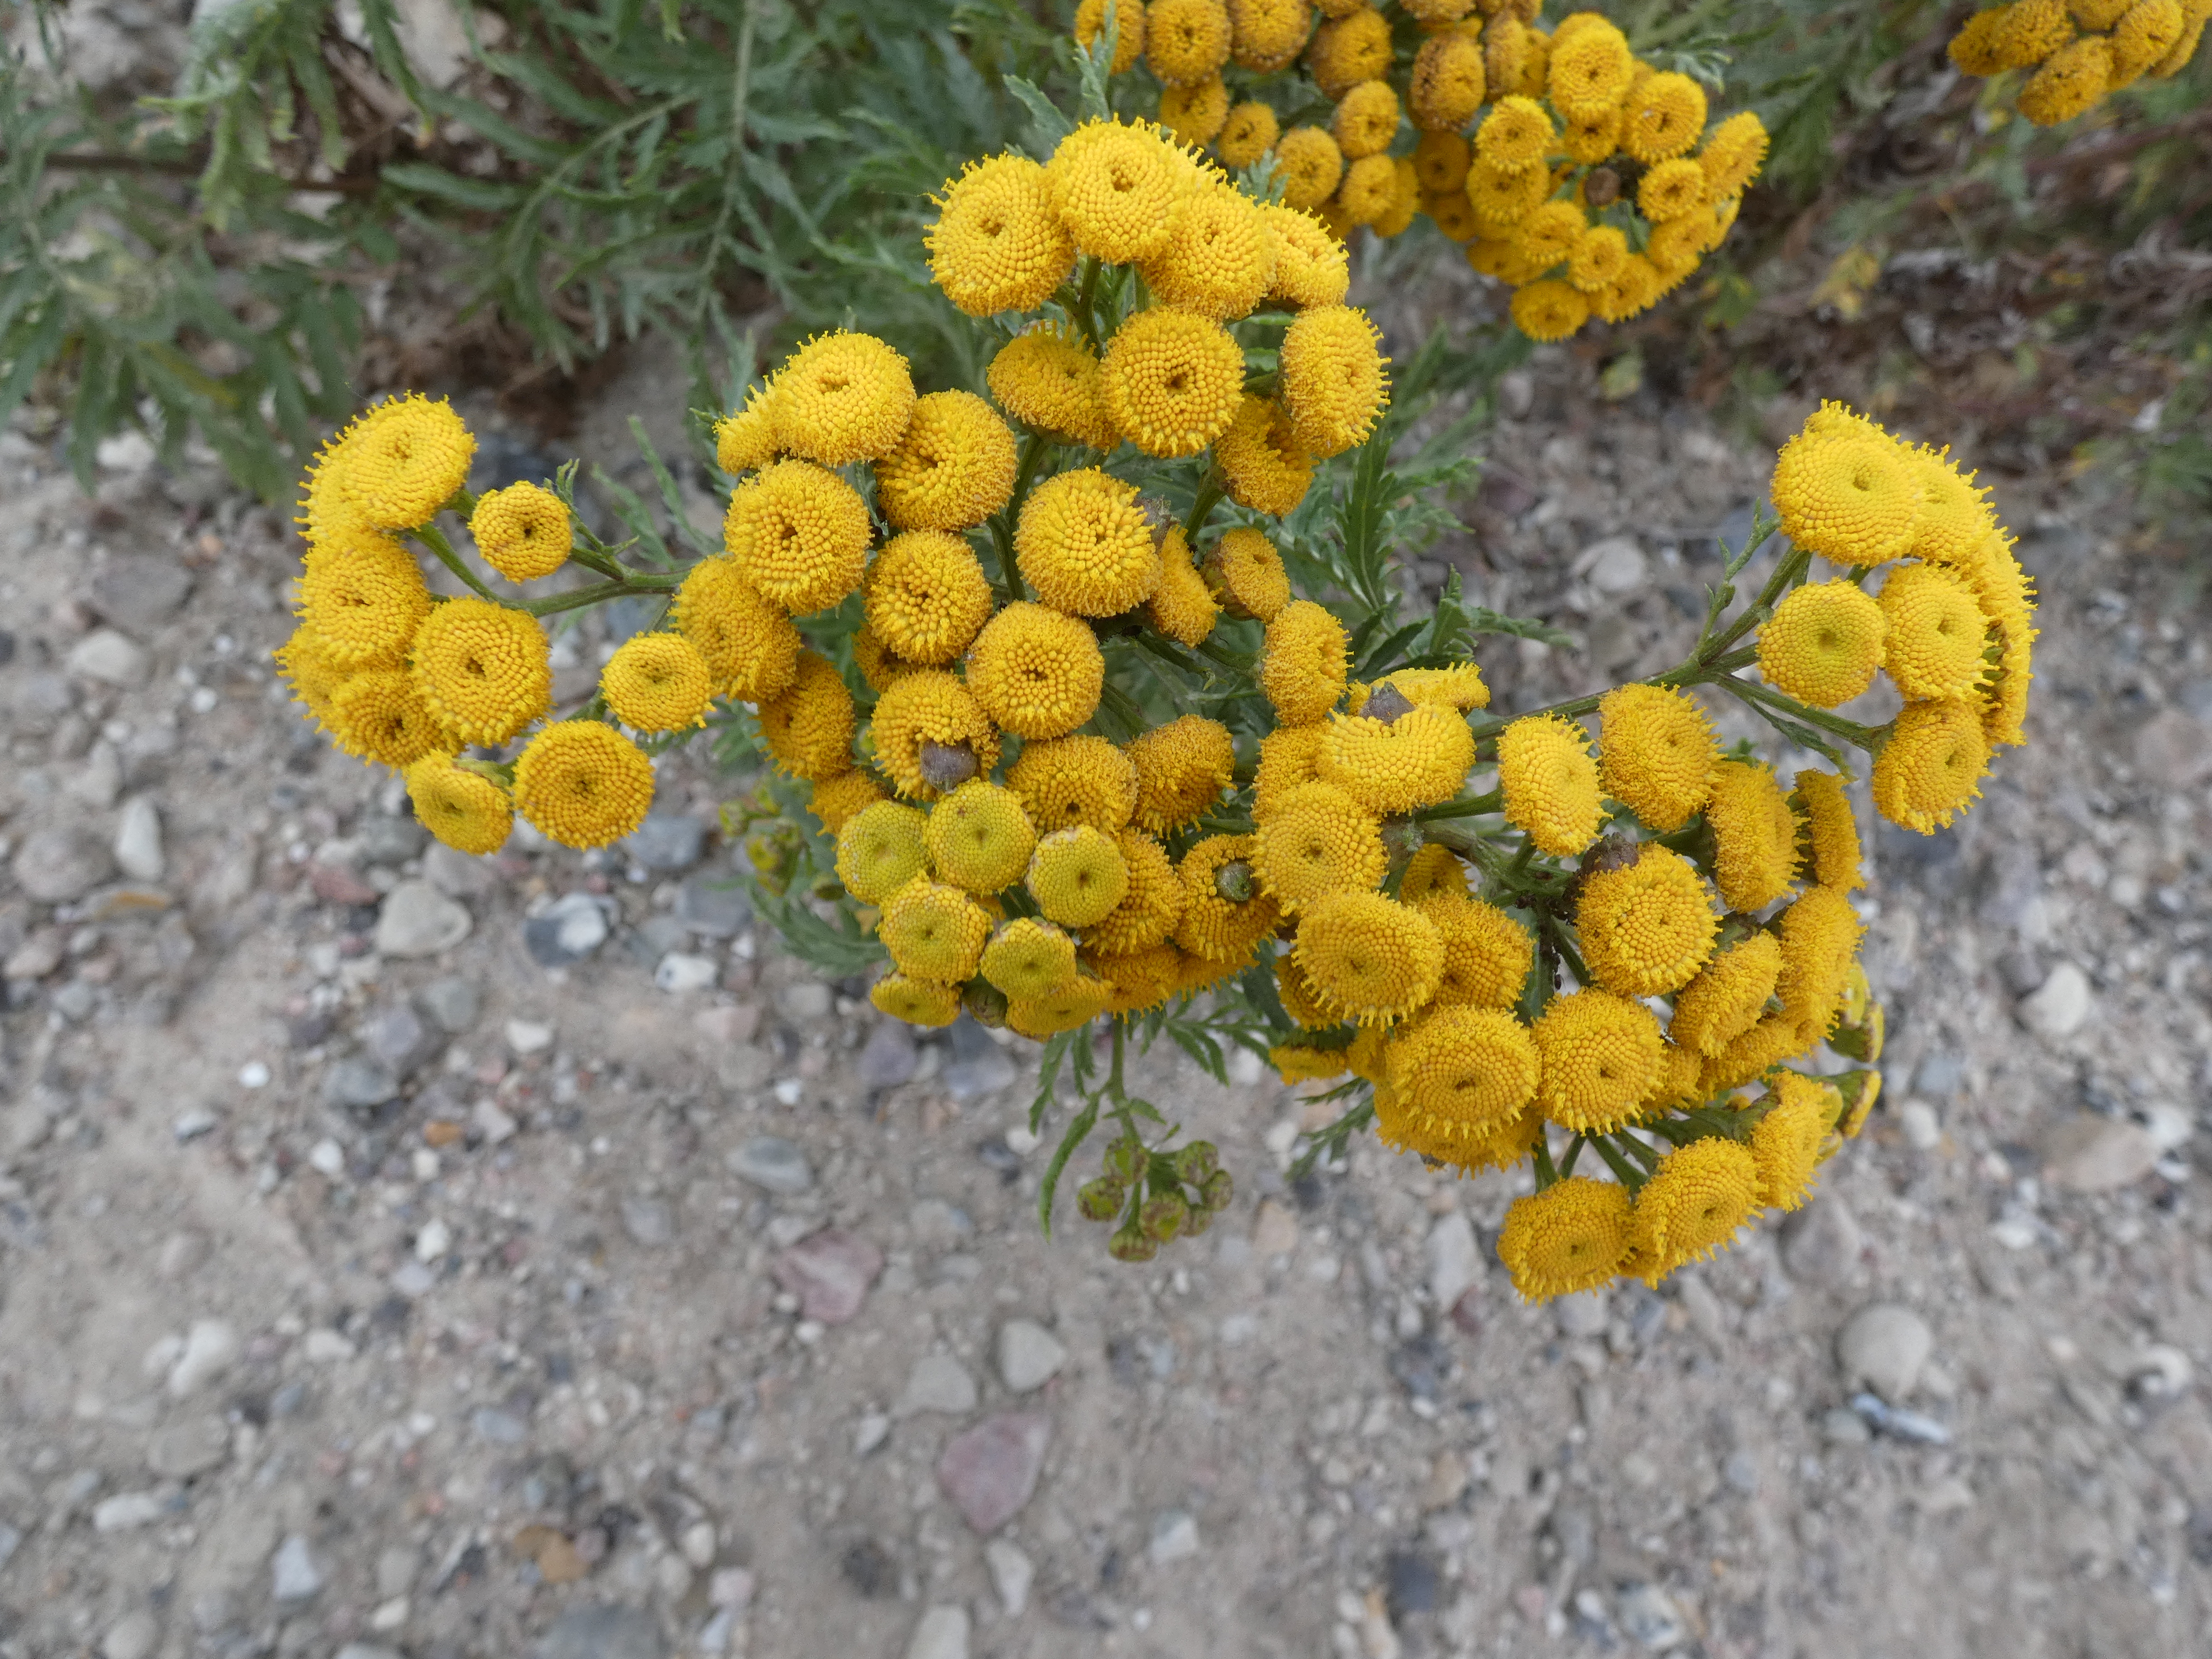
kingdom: Animalia
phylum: Arthropoda
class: Insecta
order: Diptera
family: Cecidomyiidae
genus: Rhopalomyia
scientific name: Rhopalomyia tanaceticolus
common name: Rejnfangalmyg
